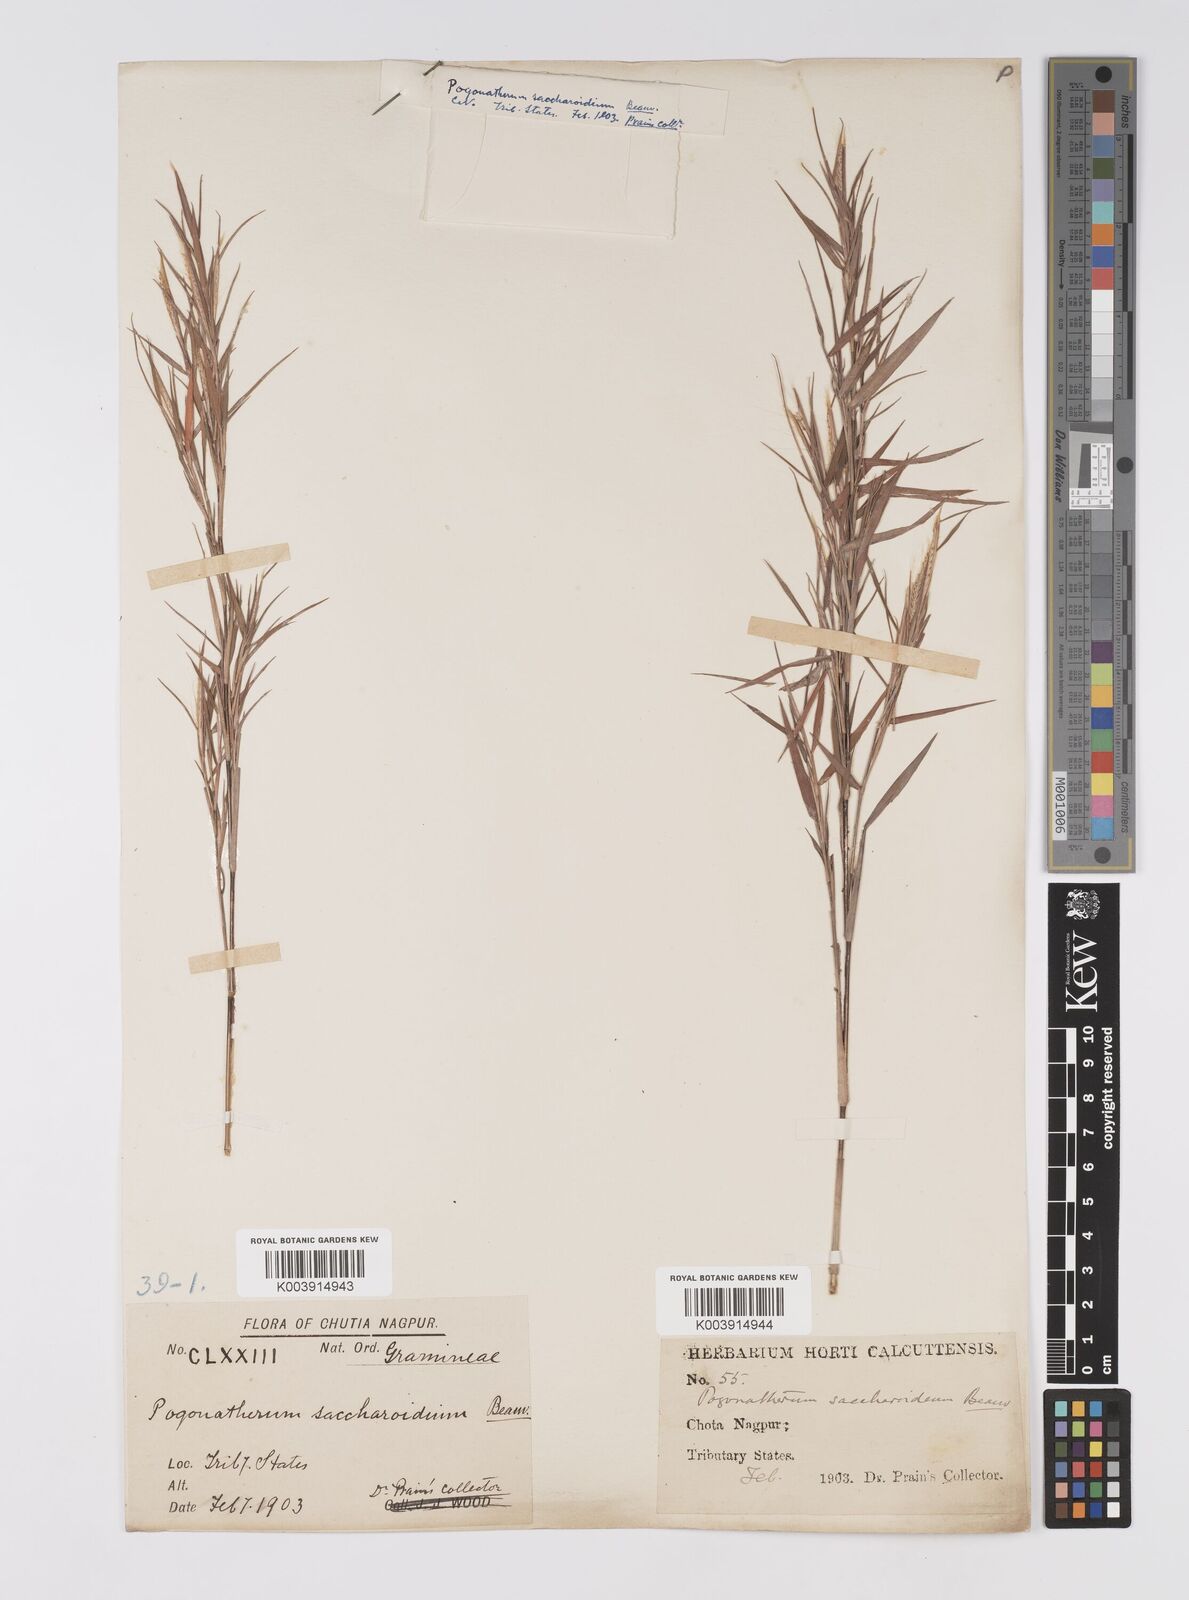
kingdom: Plantae
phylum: Tracheophyta
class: Liliopsida
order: Poales
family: Poaceae
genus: Pogonatherum
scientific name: Pogonatherum paniceum
